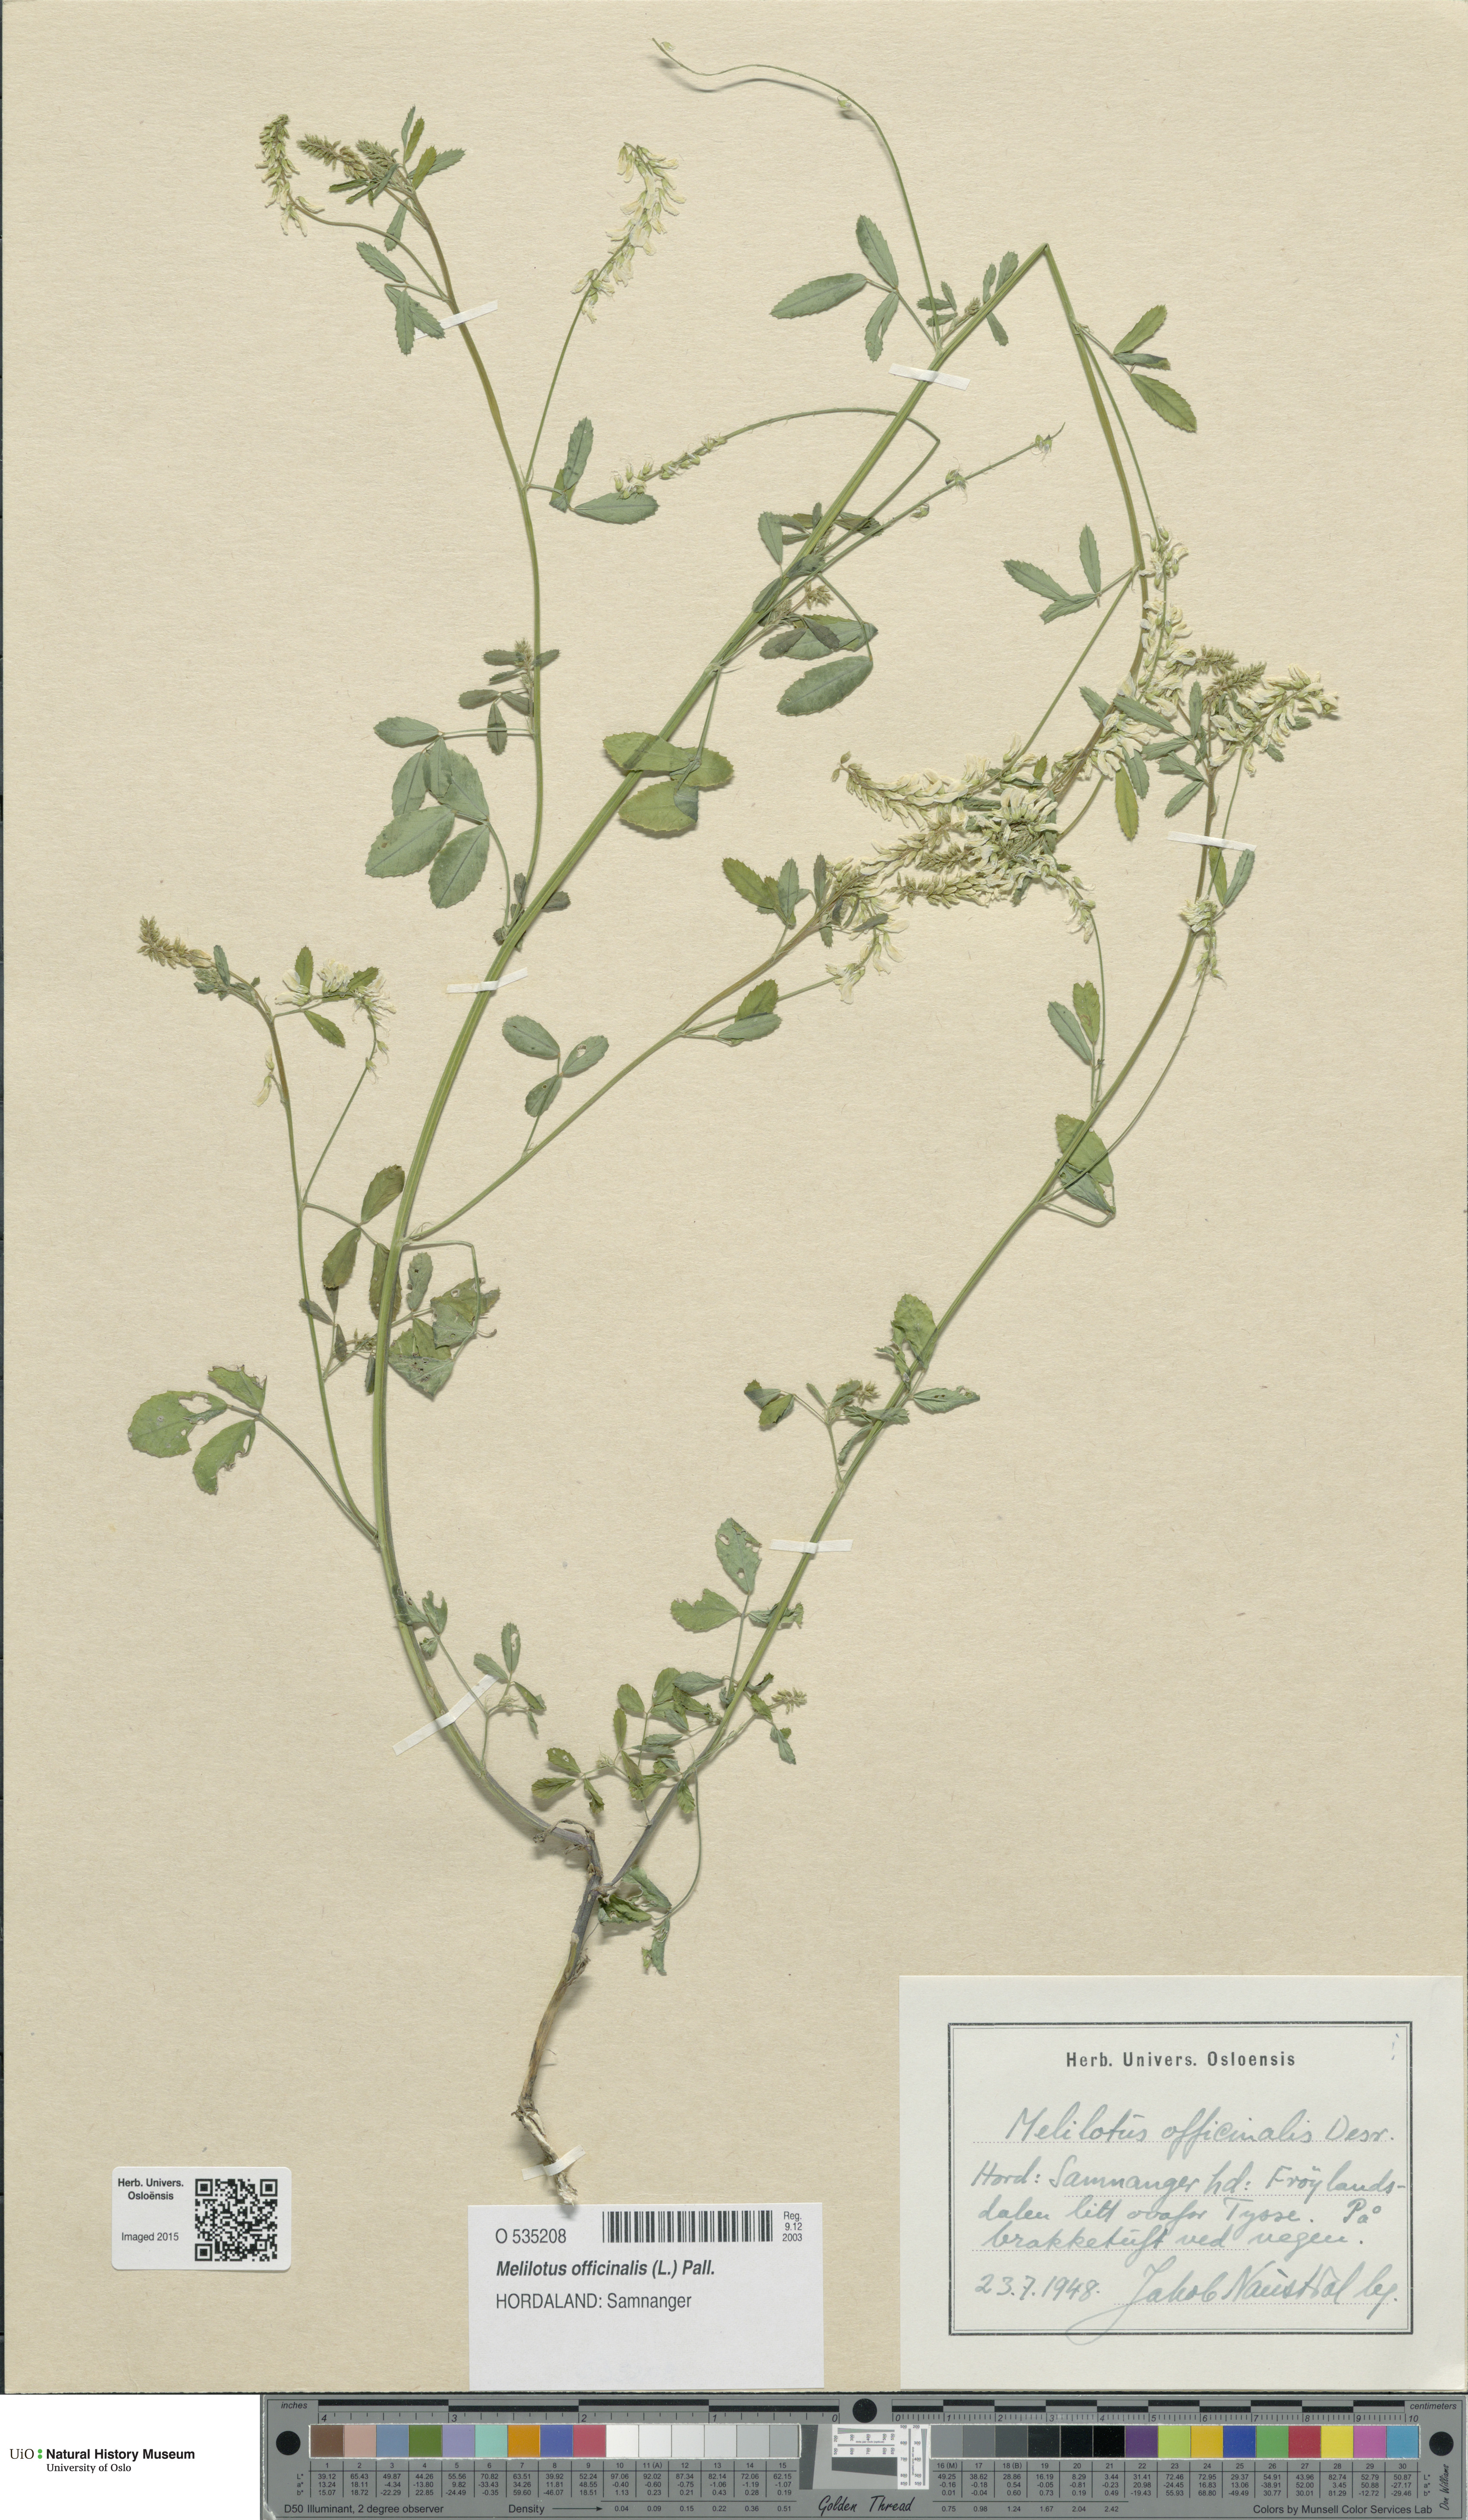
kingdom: Plantae
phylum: Tracheophyta
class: Magnoliopsida
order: Fabales
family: Fabaceae
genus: Melilotus
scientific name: Melilotus officinalis
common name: Sweetclover
